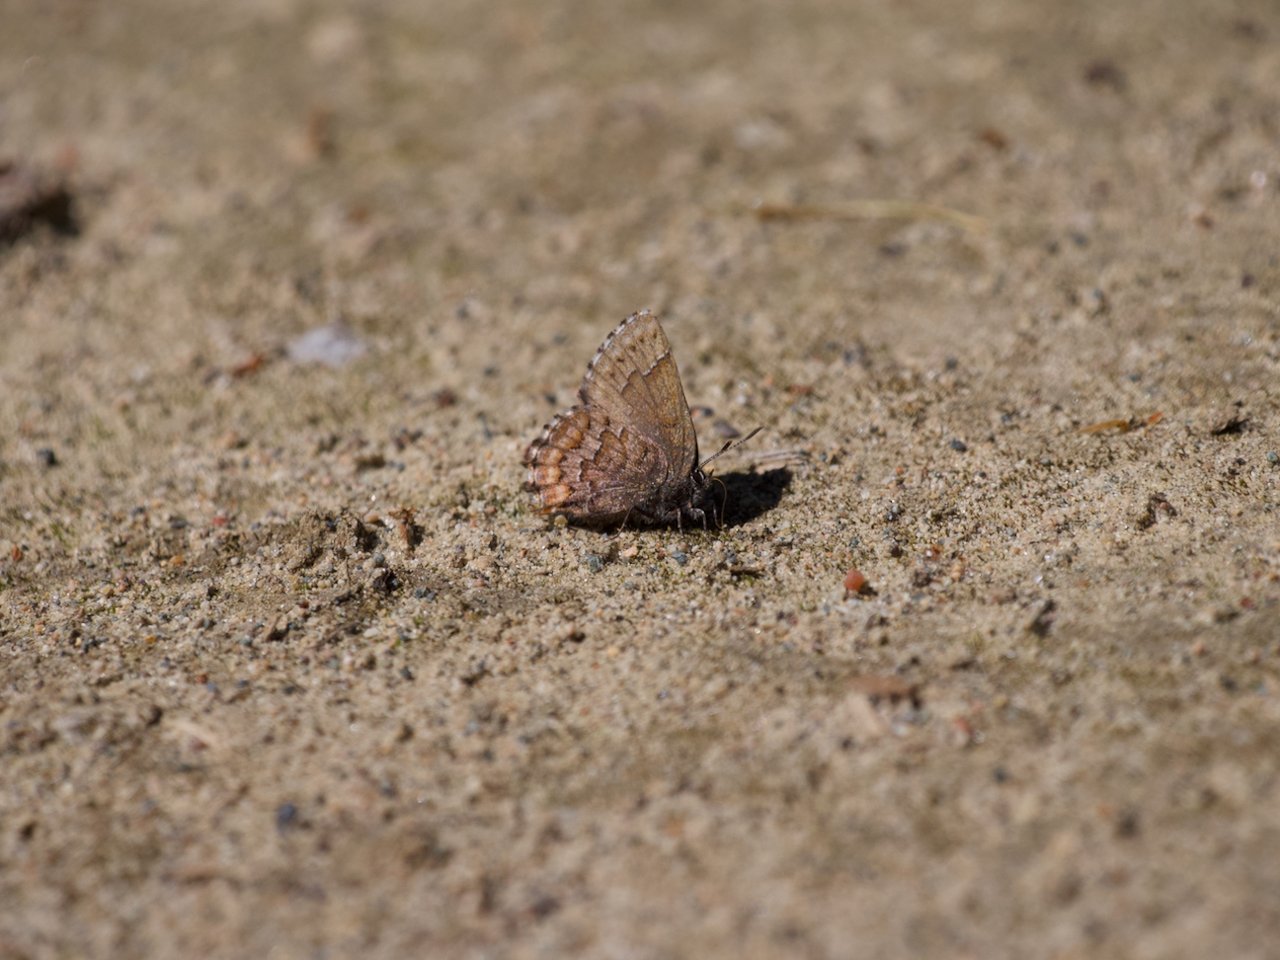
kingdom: Animalia
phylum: Arthropoda
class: Insecta
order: Lepidoptera
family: Lycaenidae
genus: Incisalia
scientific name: Incisalia niphon
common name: Eastern Pine Elfin
